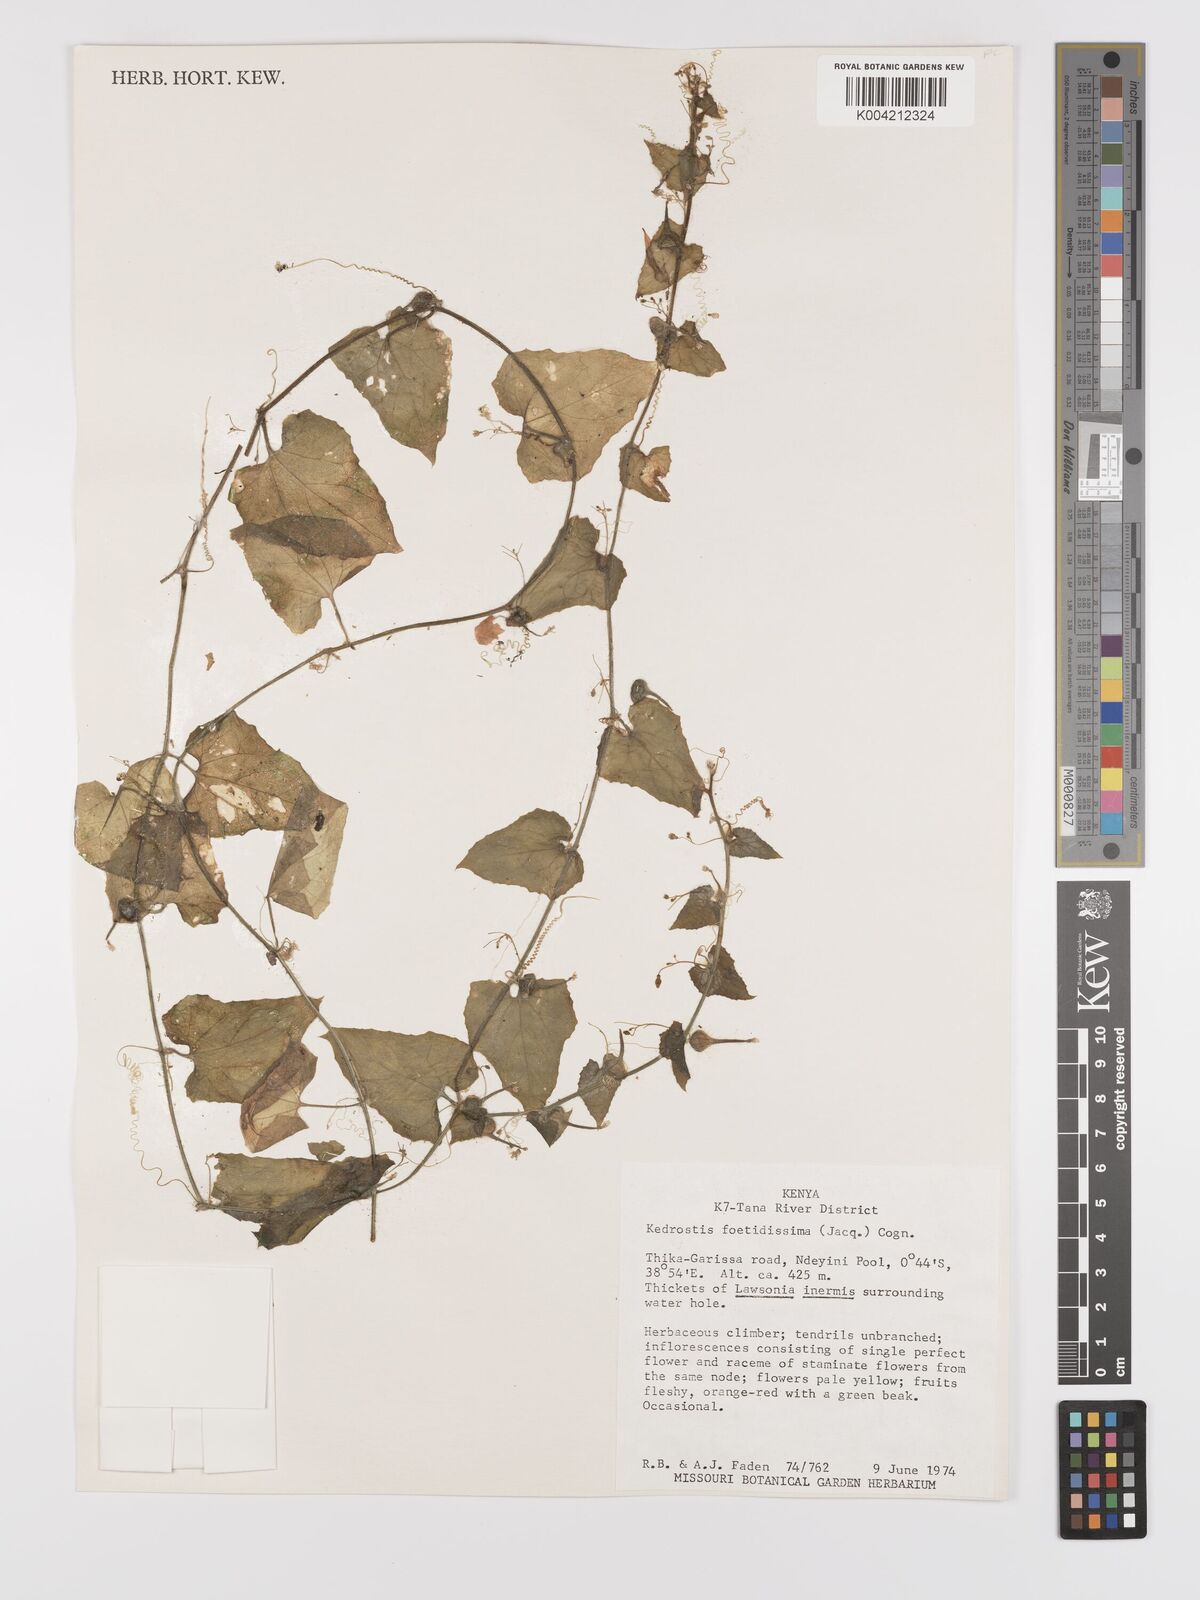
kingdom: Plantae
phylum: Tracheophyta
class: Magnoliopsida
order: Cucurbitales
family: Cucurbitaceae
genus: Kedrostis
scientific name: Kedrostis foetidissima
